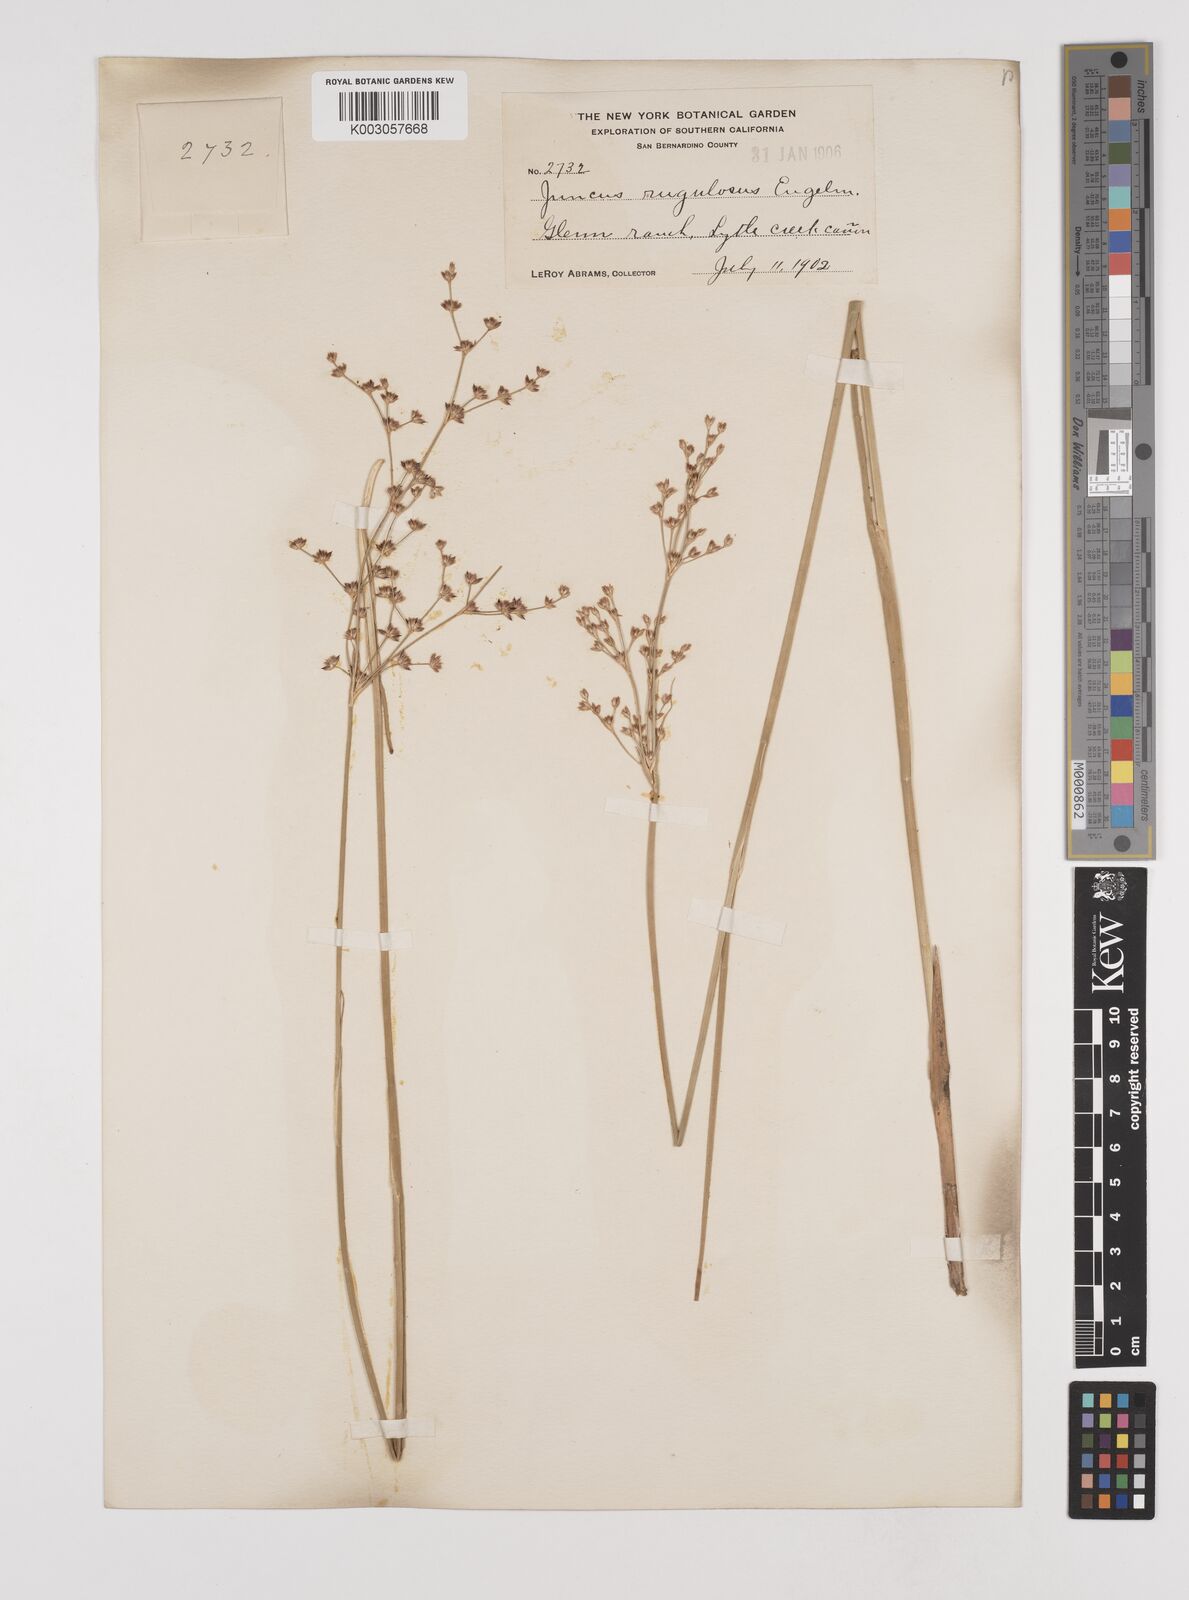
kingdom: Plantae
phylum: Tracheophyta
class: Liliopsida
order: Poales
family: Juncaceae
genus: Juncus
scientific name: Juncus rugulosus
